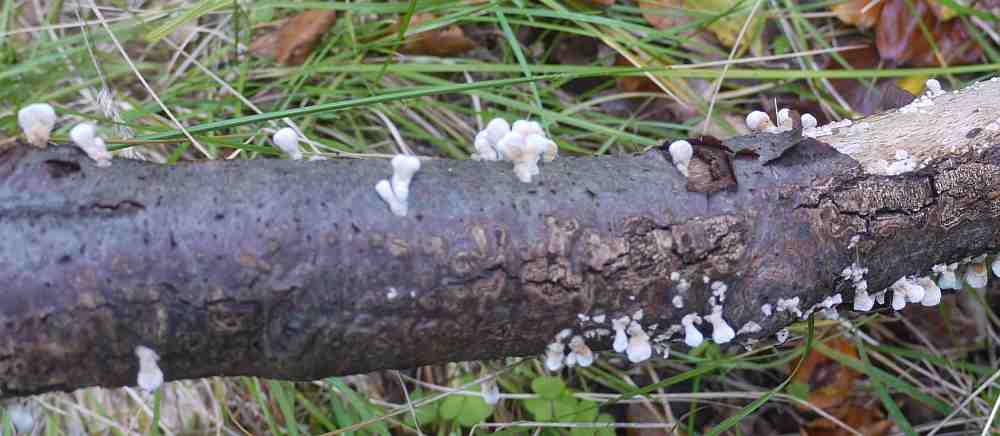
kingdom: Fungi
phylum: Basidiomycota
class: Agaricomycetes
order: Amylocorticiales
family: Amylocorticiaceae
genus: Plicaturopsis
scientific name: Plicaturopsis crispa
